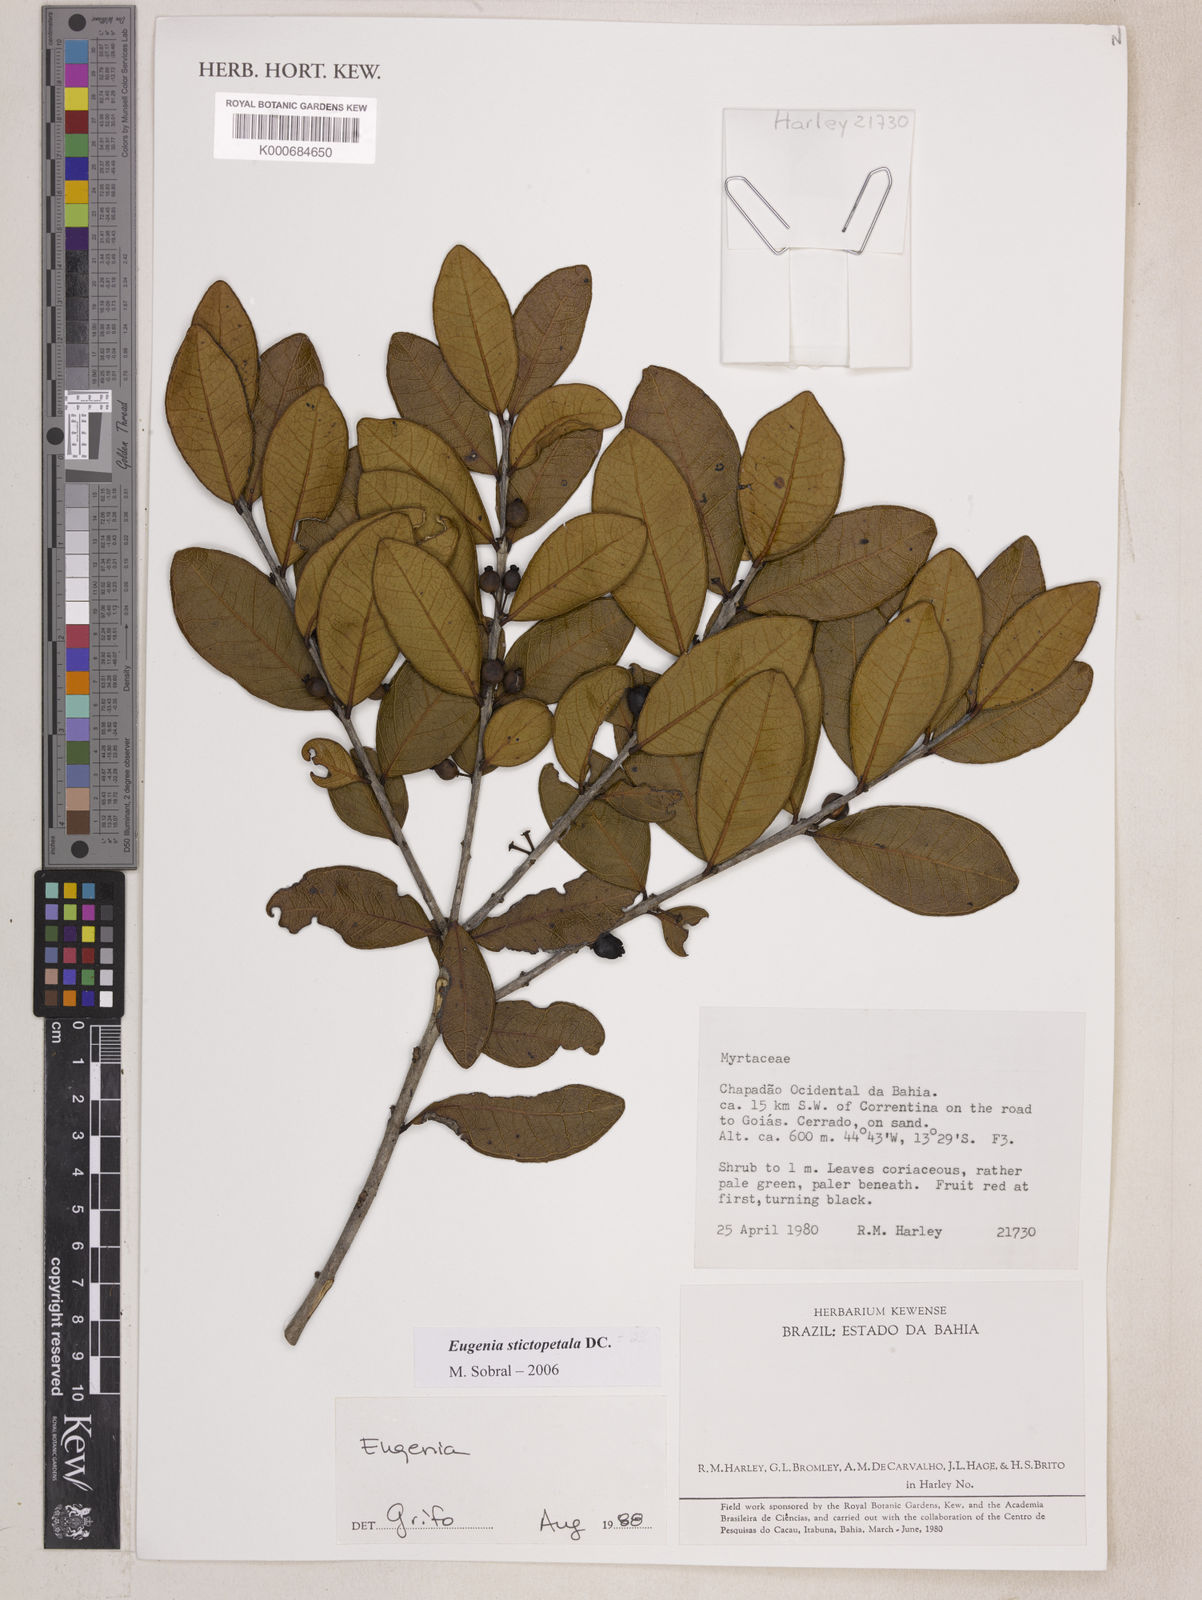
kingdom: Plantae
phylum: Tracheophyta
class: Magnoliopsida
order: Myrtales
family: Myrtaceae
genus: Eugenia
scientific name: Eugenia stictopetala
